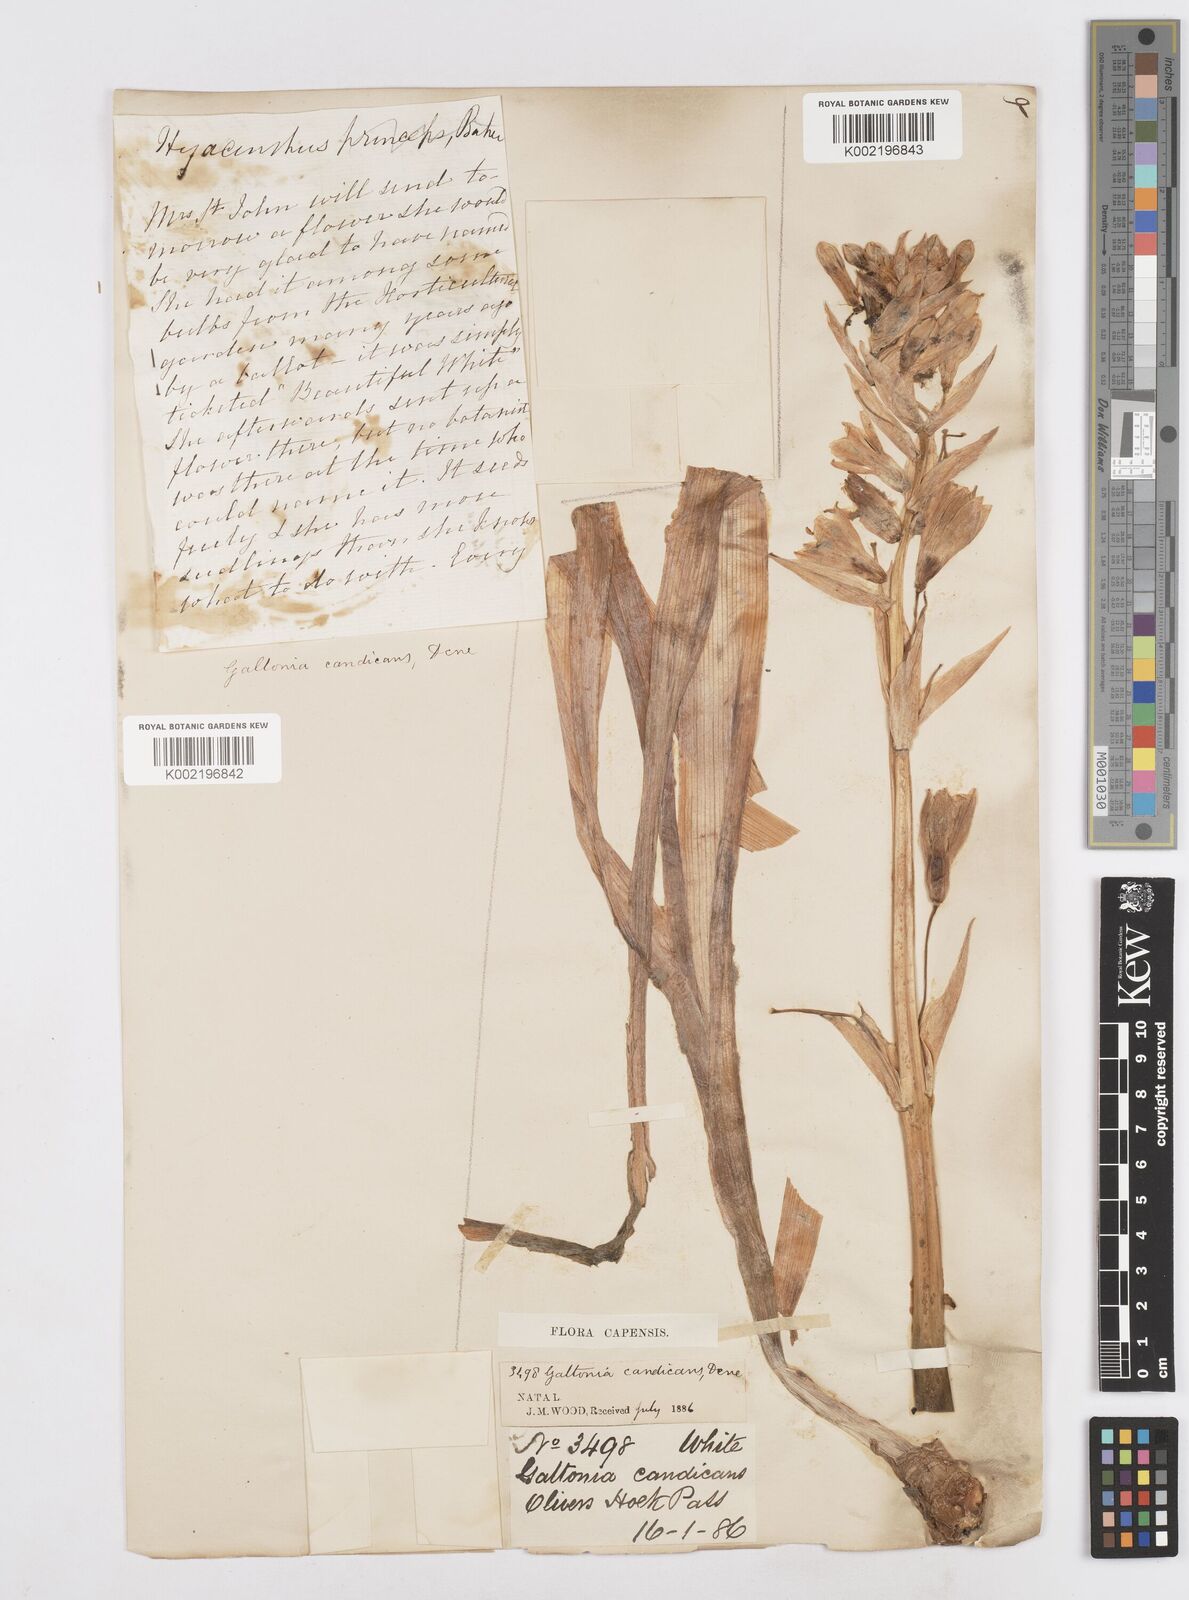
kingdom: Plantae
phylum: Tracheophyta
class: Liliopsida
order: Asparagales
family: Asparagaceae
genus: Ornithogalum
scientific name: Ornithogalum candicans
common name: Summer-hyacinth
